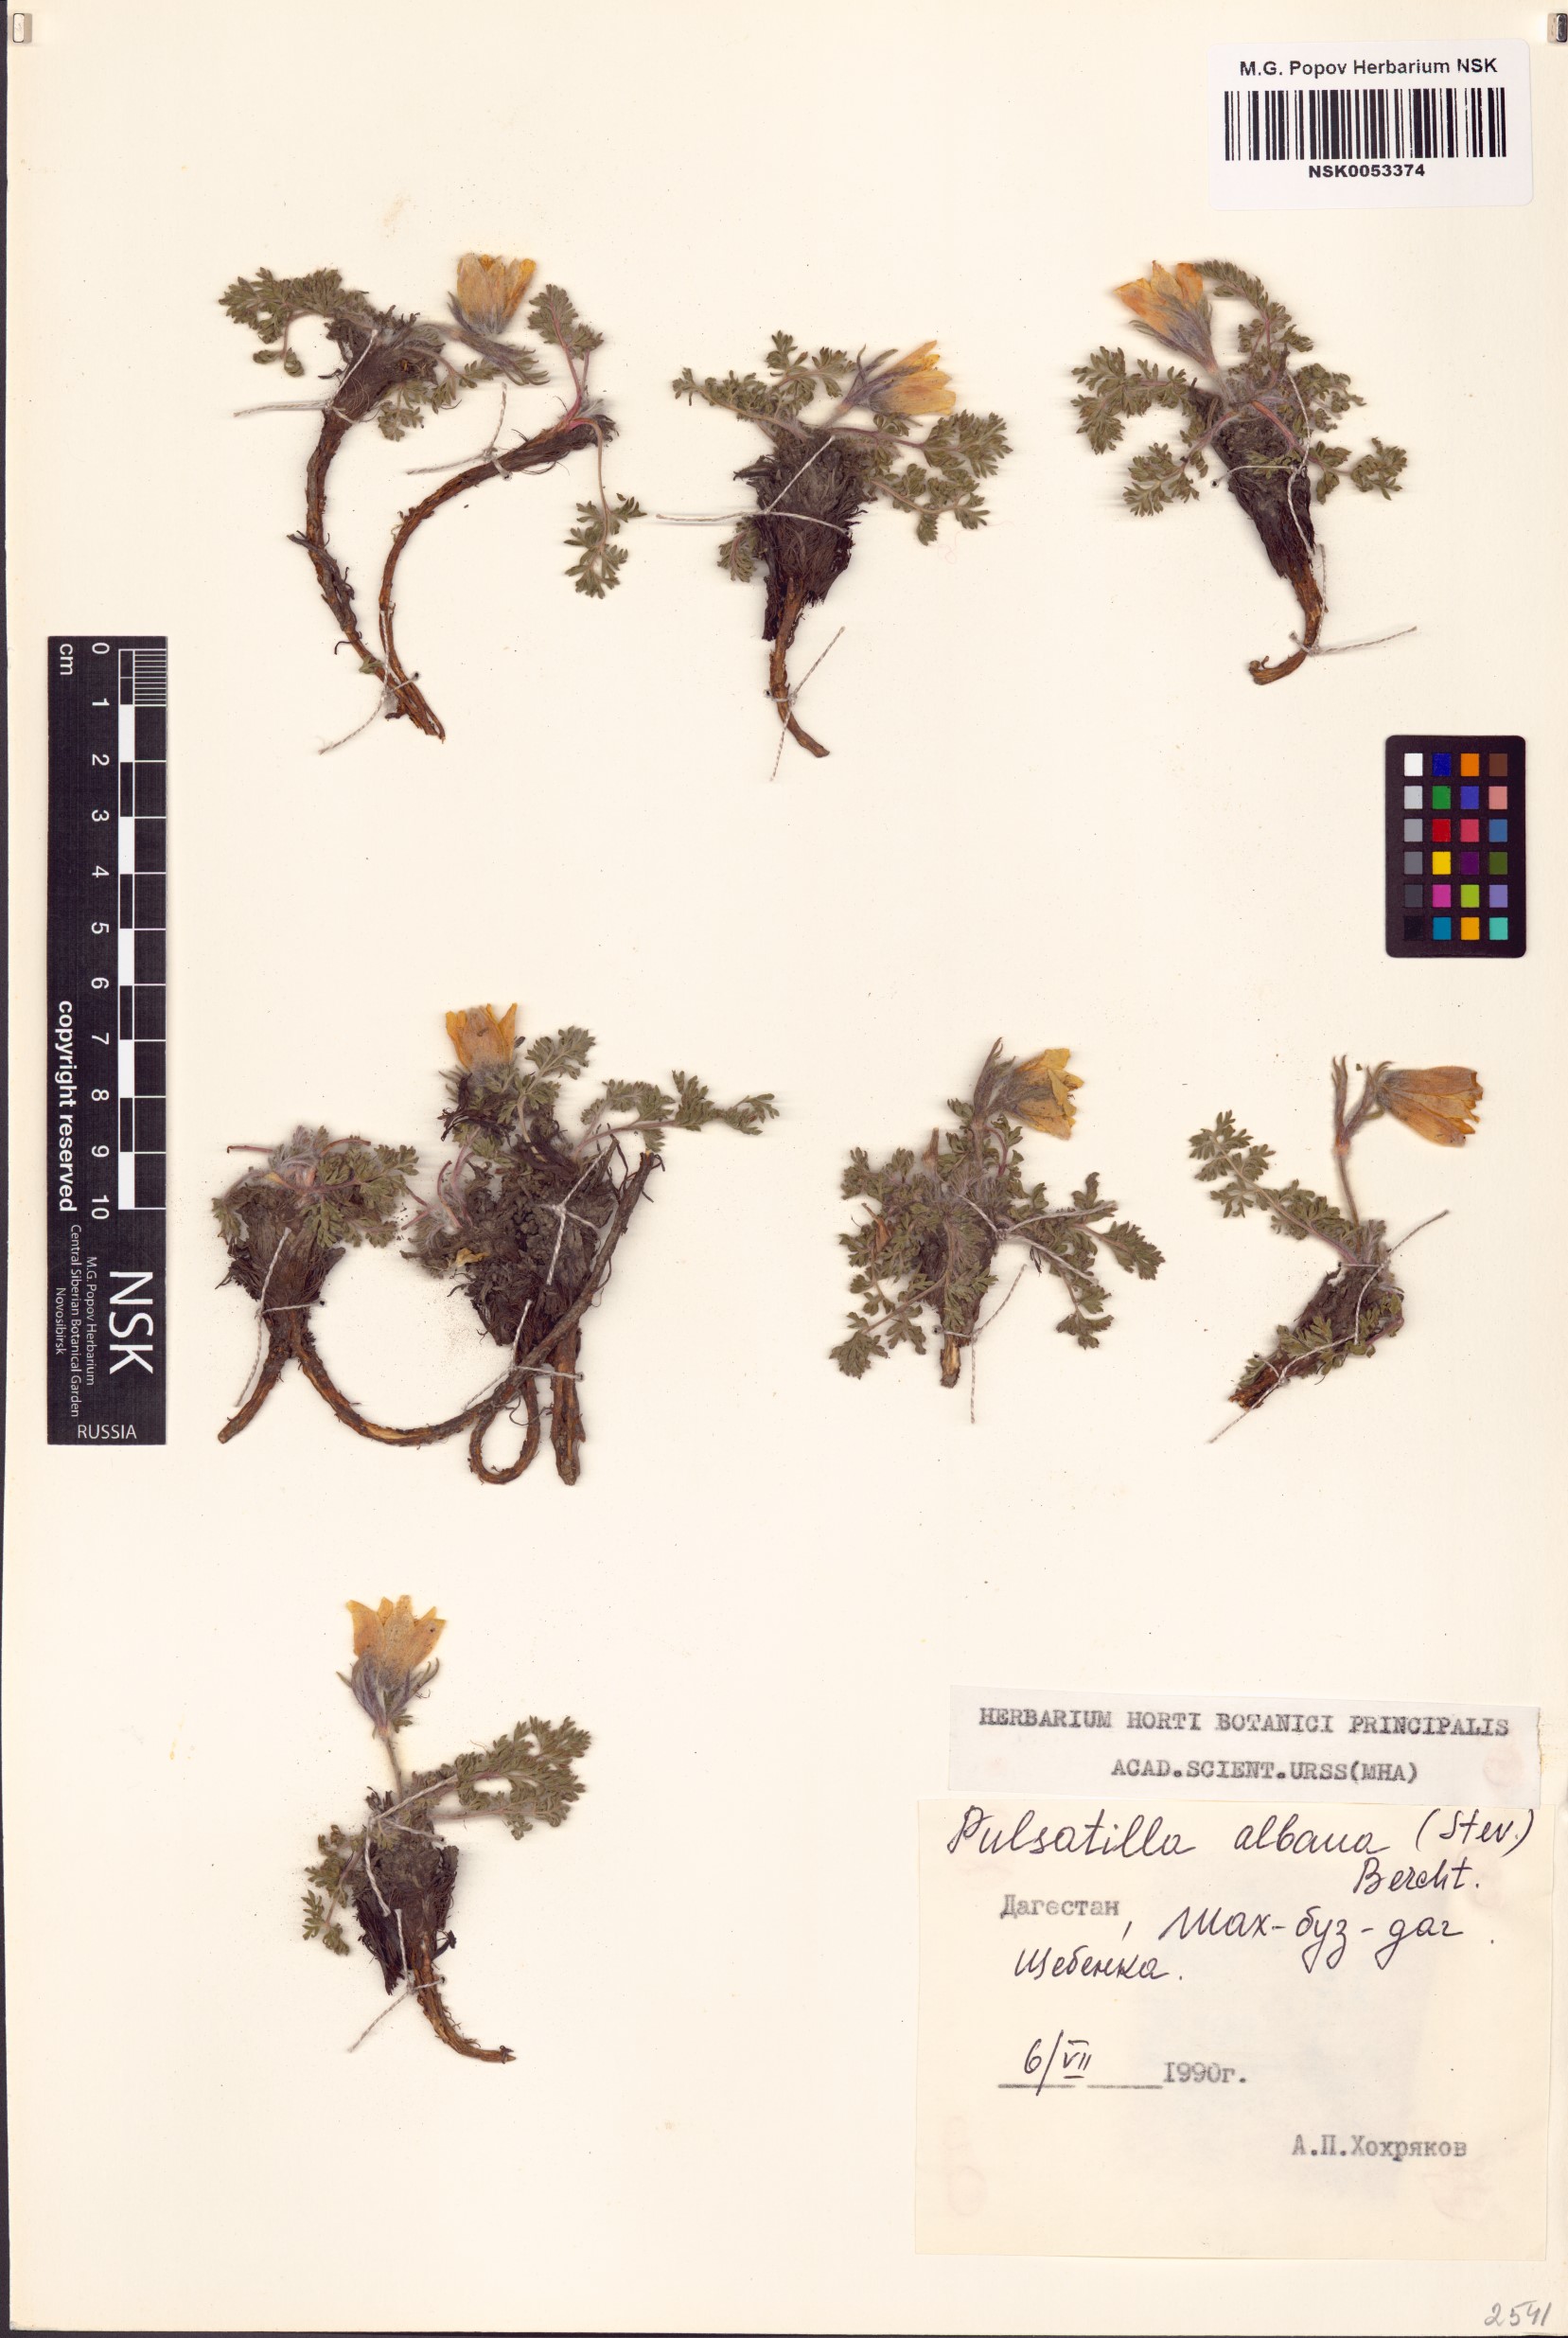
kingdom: Plantae
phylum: Tracheophyta
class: Magnoliopsida
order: Ranunculales
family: Ranunculaceae
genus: Pulsatilla
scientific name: Pulsatilla albana
